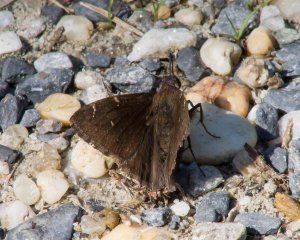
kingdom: Animalia
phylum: Arthropoda
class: Insecta
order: Lepidoptera
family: Hesperiidae
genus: Autochton
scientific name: Autochton
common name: Northern Cloudywing
